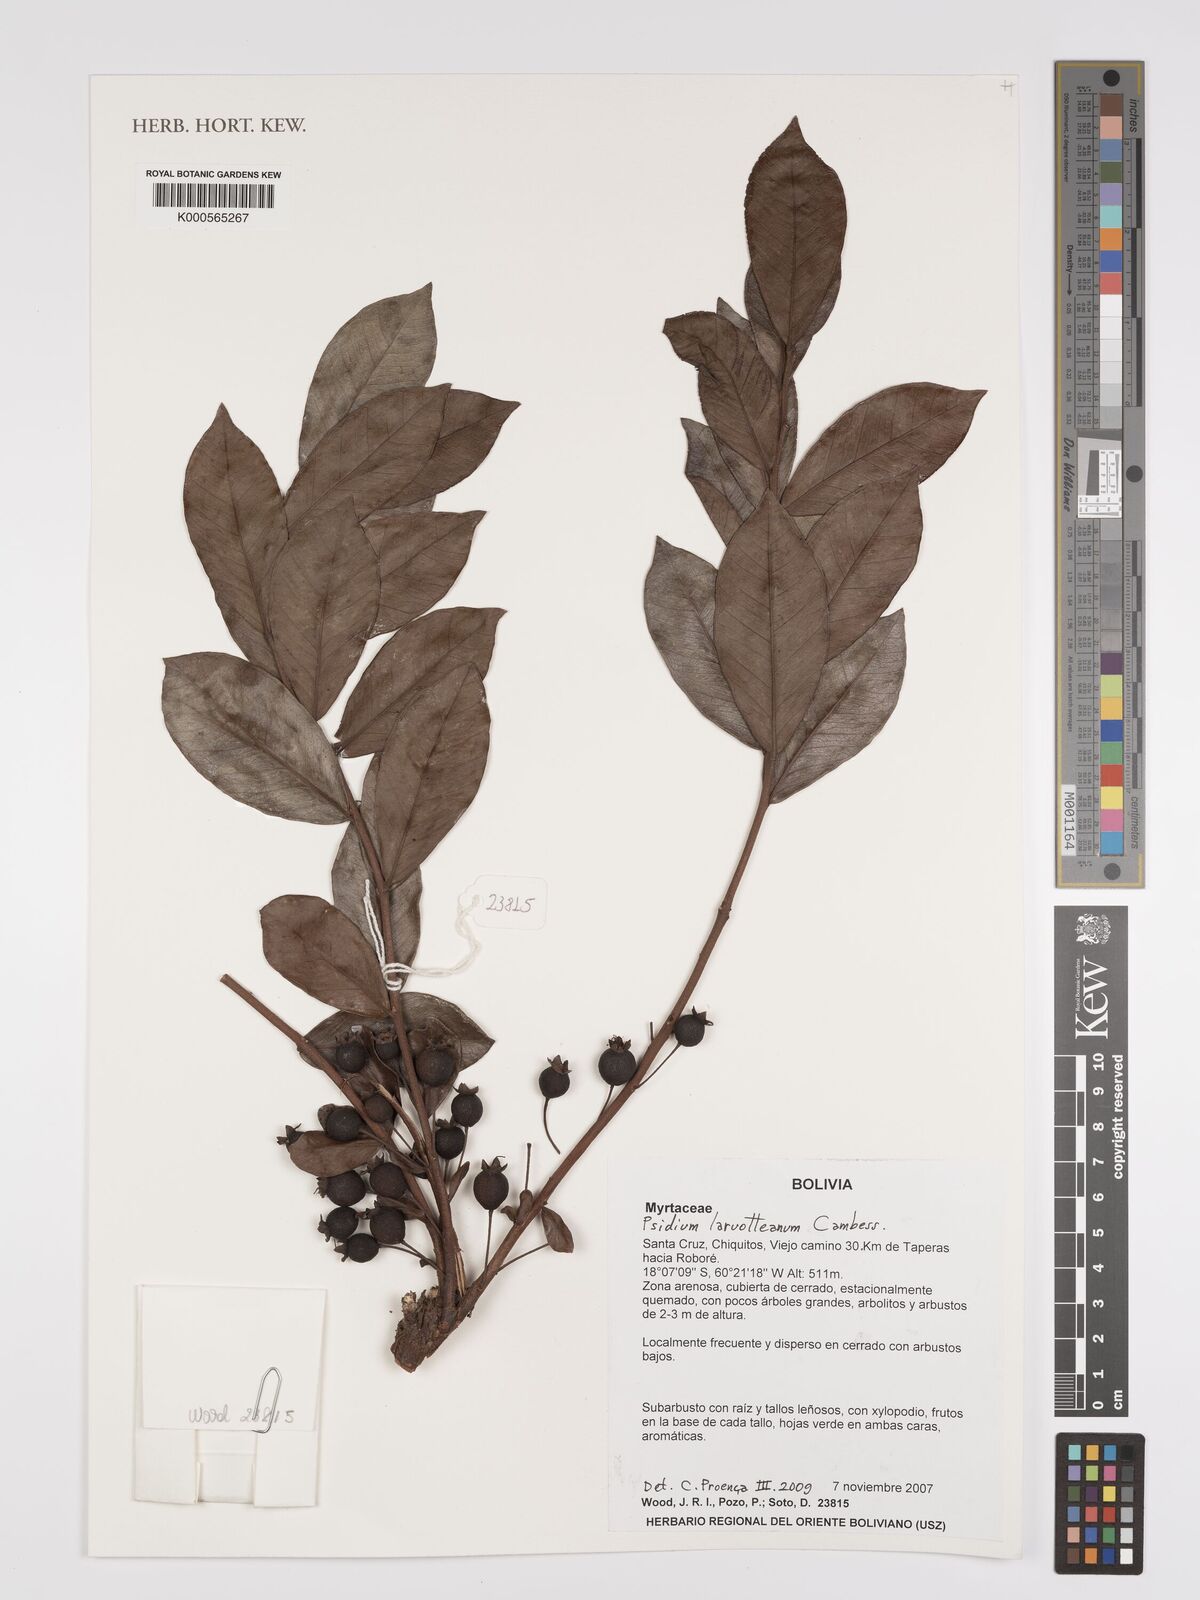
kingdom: Plantae
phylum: Tracheophyta
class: Magnoliopsida
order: Myrtales
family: Myrtaceae
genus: Psidium
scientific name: Psidium
